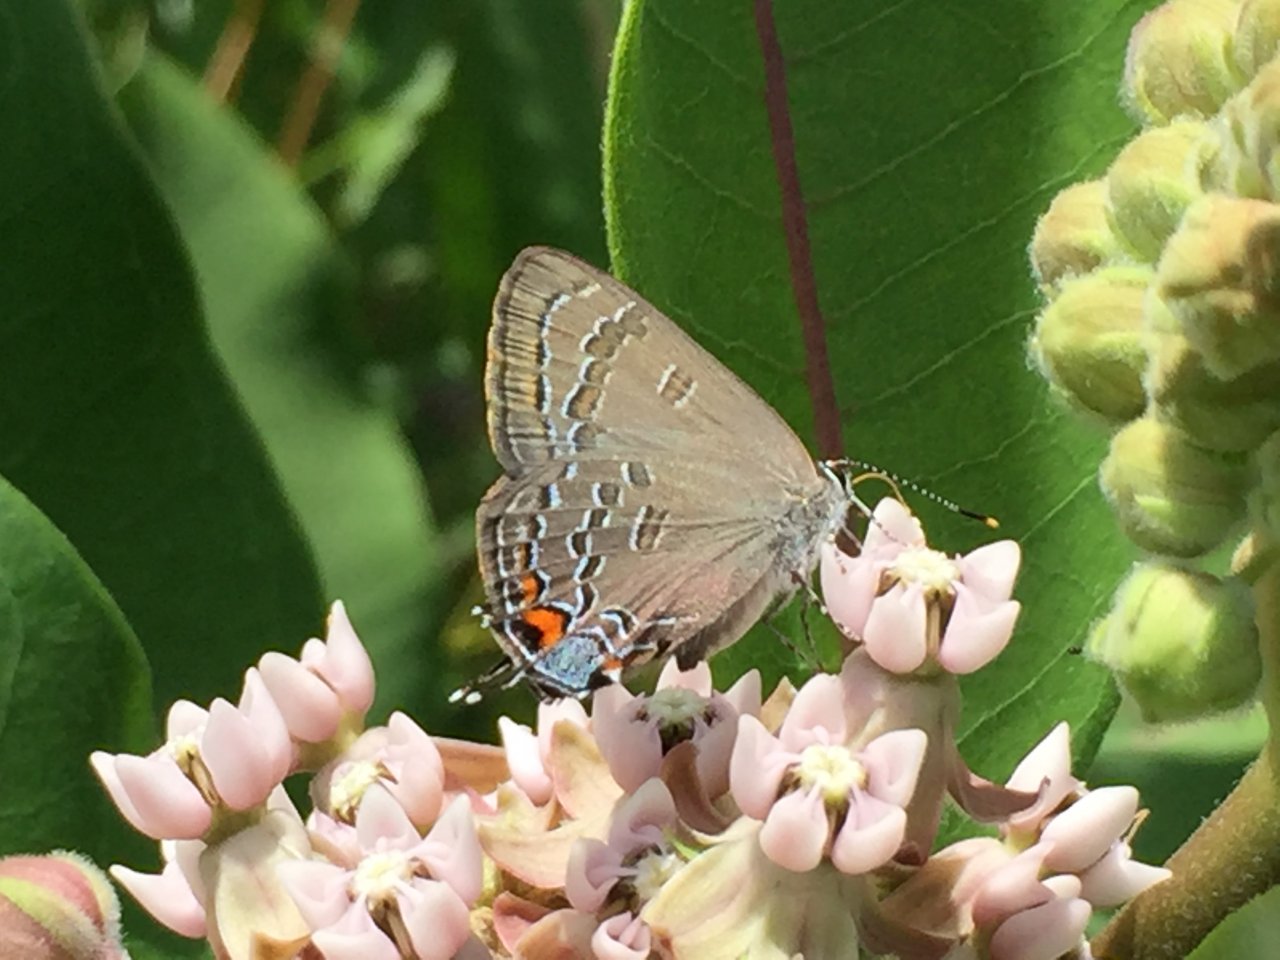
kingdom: Animalia
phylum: Arthropoda
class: Insecta
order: Lepidoptera
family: Lycaenidae
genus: Satyrium
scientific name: Satyrium calanus
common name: Banded Hairstreak
